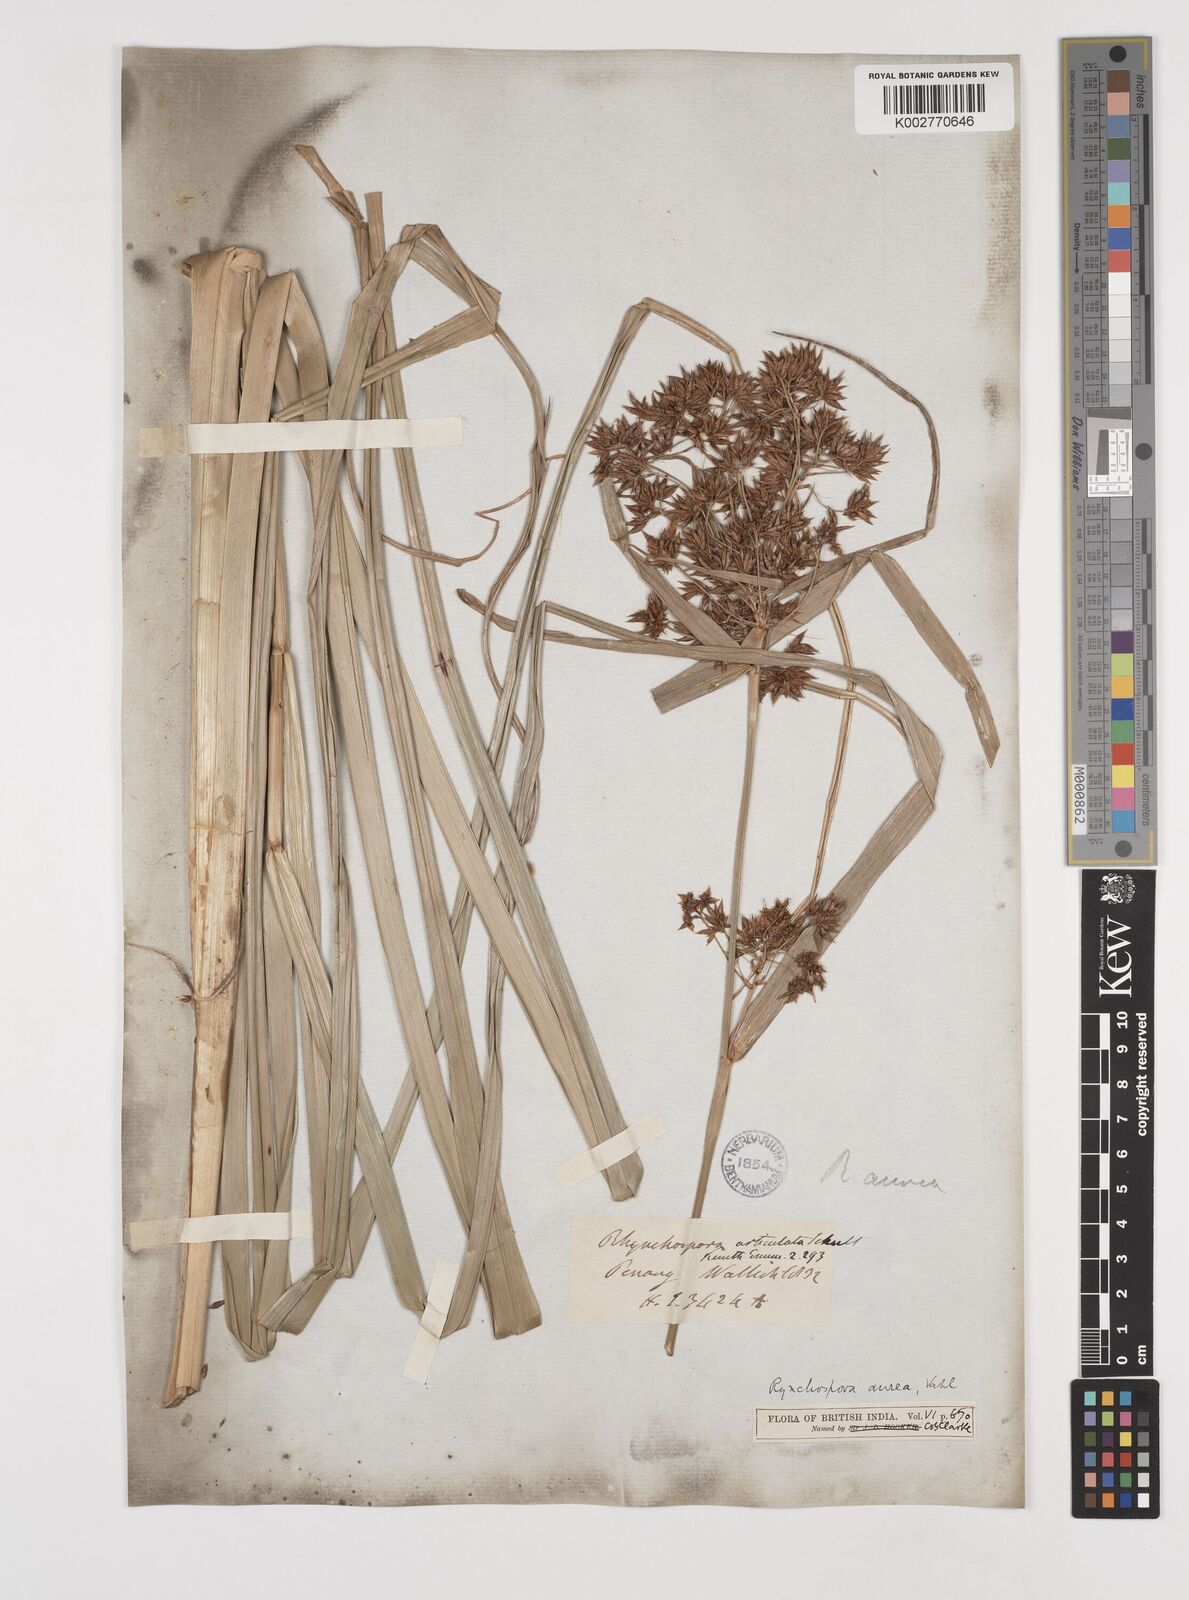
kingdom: Plantae
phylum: Tracheophyta
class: Liliopsida
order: Poales
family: Cyperaceae
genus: Rhynchospora
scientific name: Rhynchospora corymbosa
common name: Golden beak sedge
